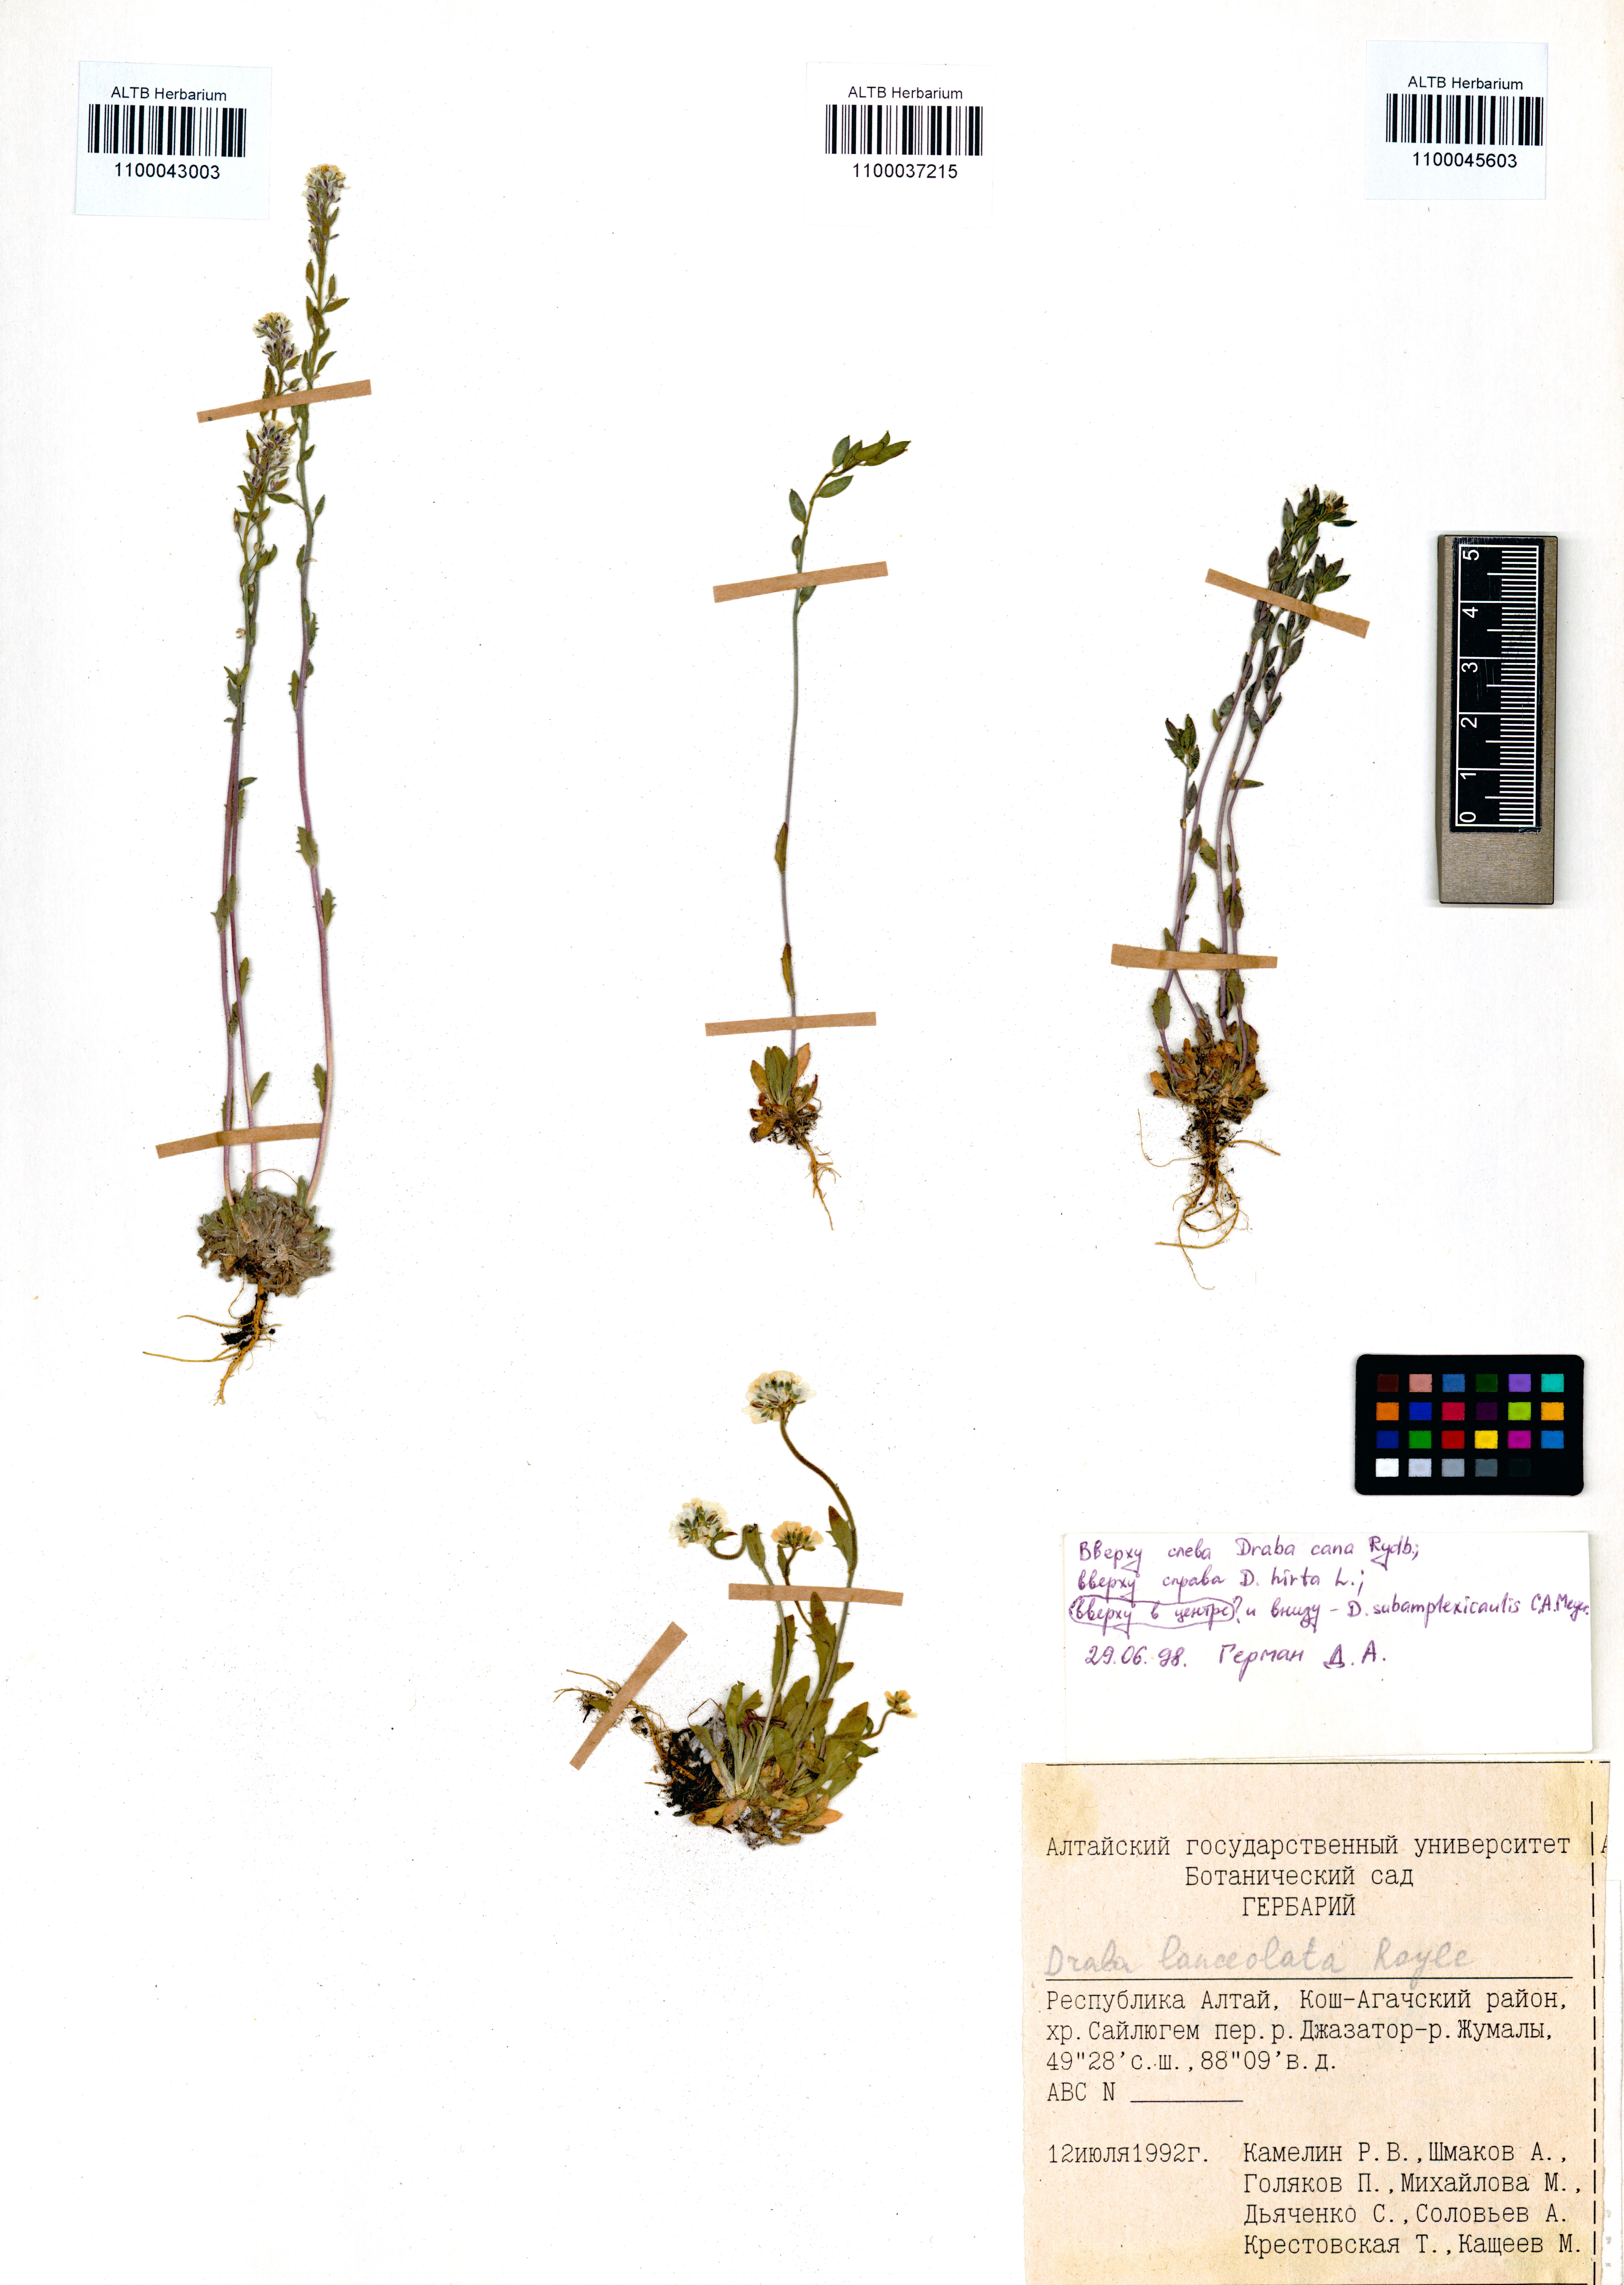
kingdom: Plantae
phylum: Tracheophyta
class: Magnoliopsida
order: Brassicales
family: Brassicaceae
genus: Draba
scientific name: Draba subamplexicaulis
